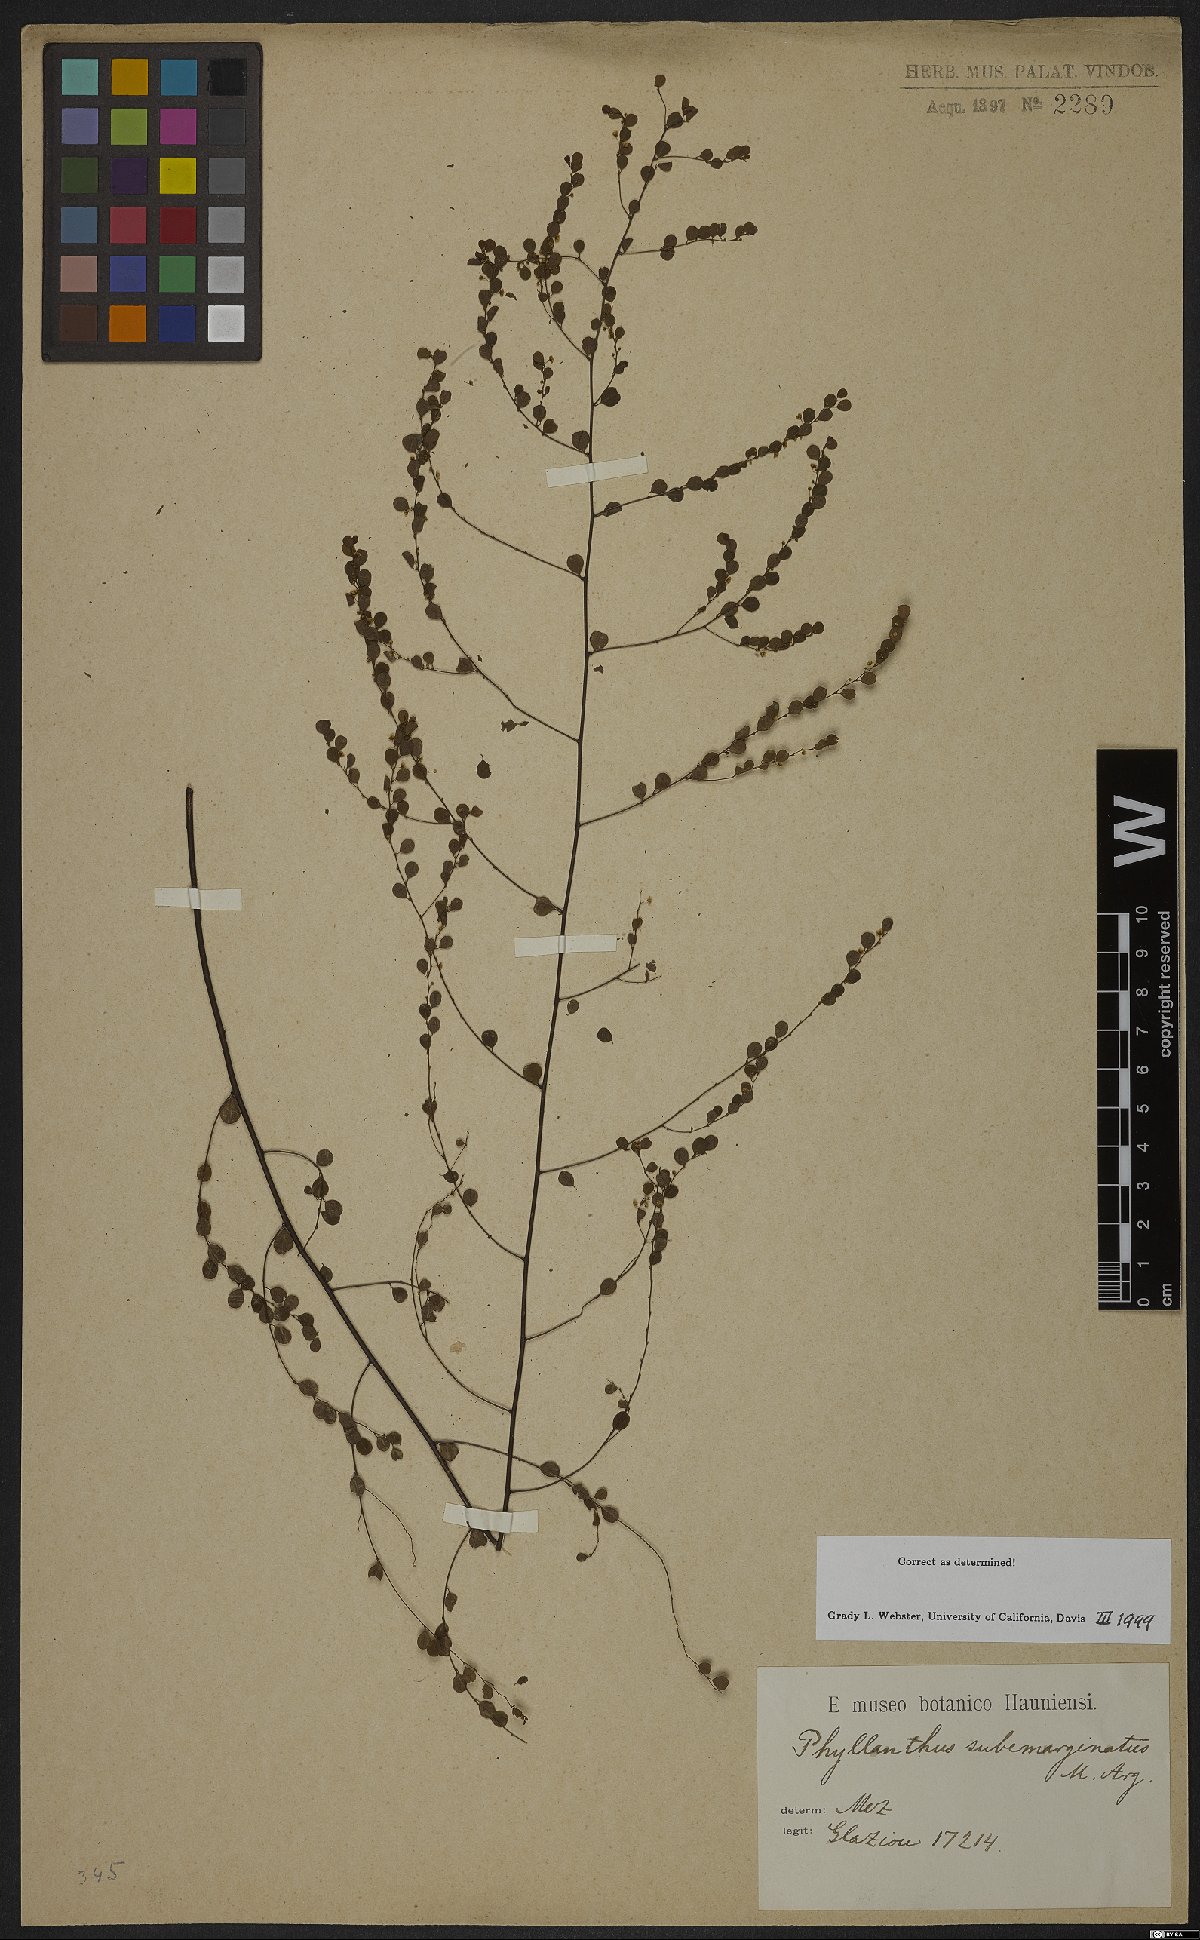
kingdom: Plantae
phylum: Tracheophyta
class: Magnoliopsida
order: Malpighiales
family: Phyllanthaceae
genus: Phyllanthus
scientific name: Phyllanthus subemarginatus
